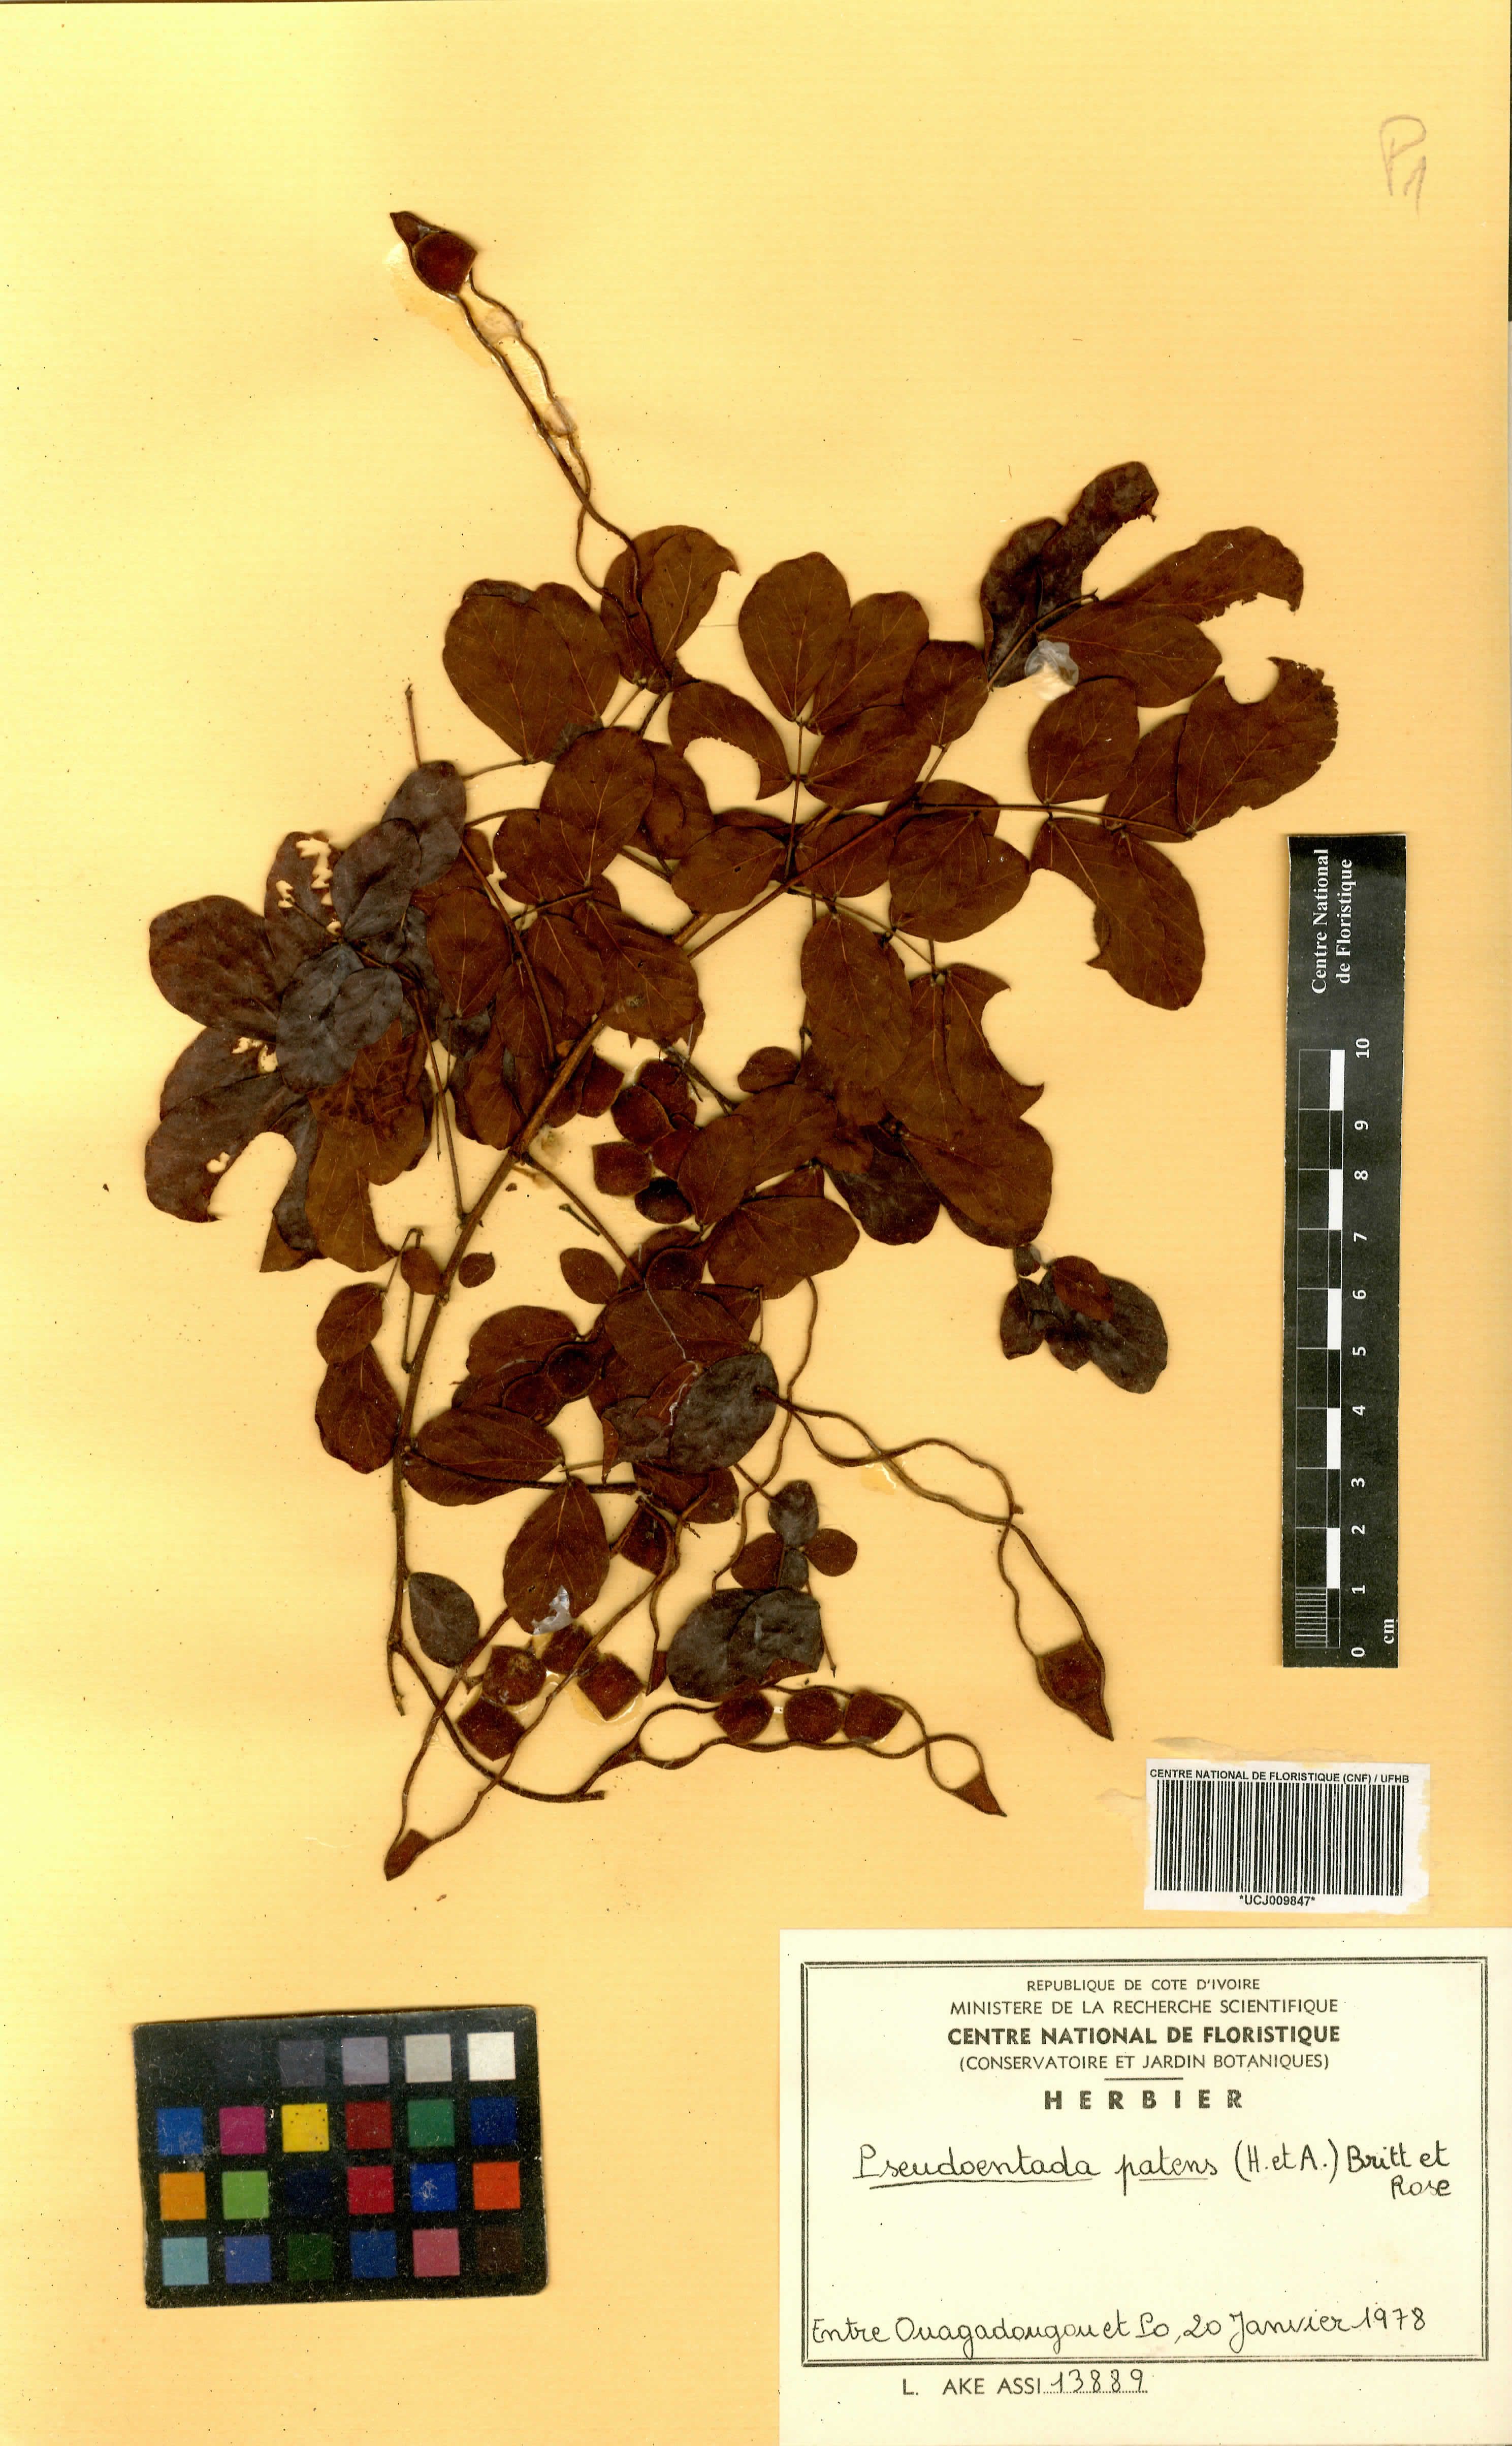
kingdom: Plantae
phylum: Tracheophyta
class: Magnoliopsida
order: Fabales
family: Fabaceae
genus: Adenopodia
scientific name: Adenopodia patens
